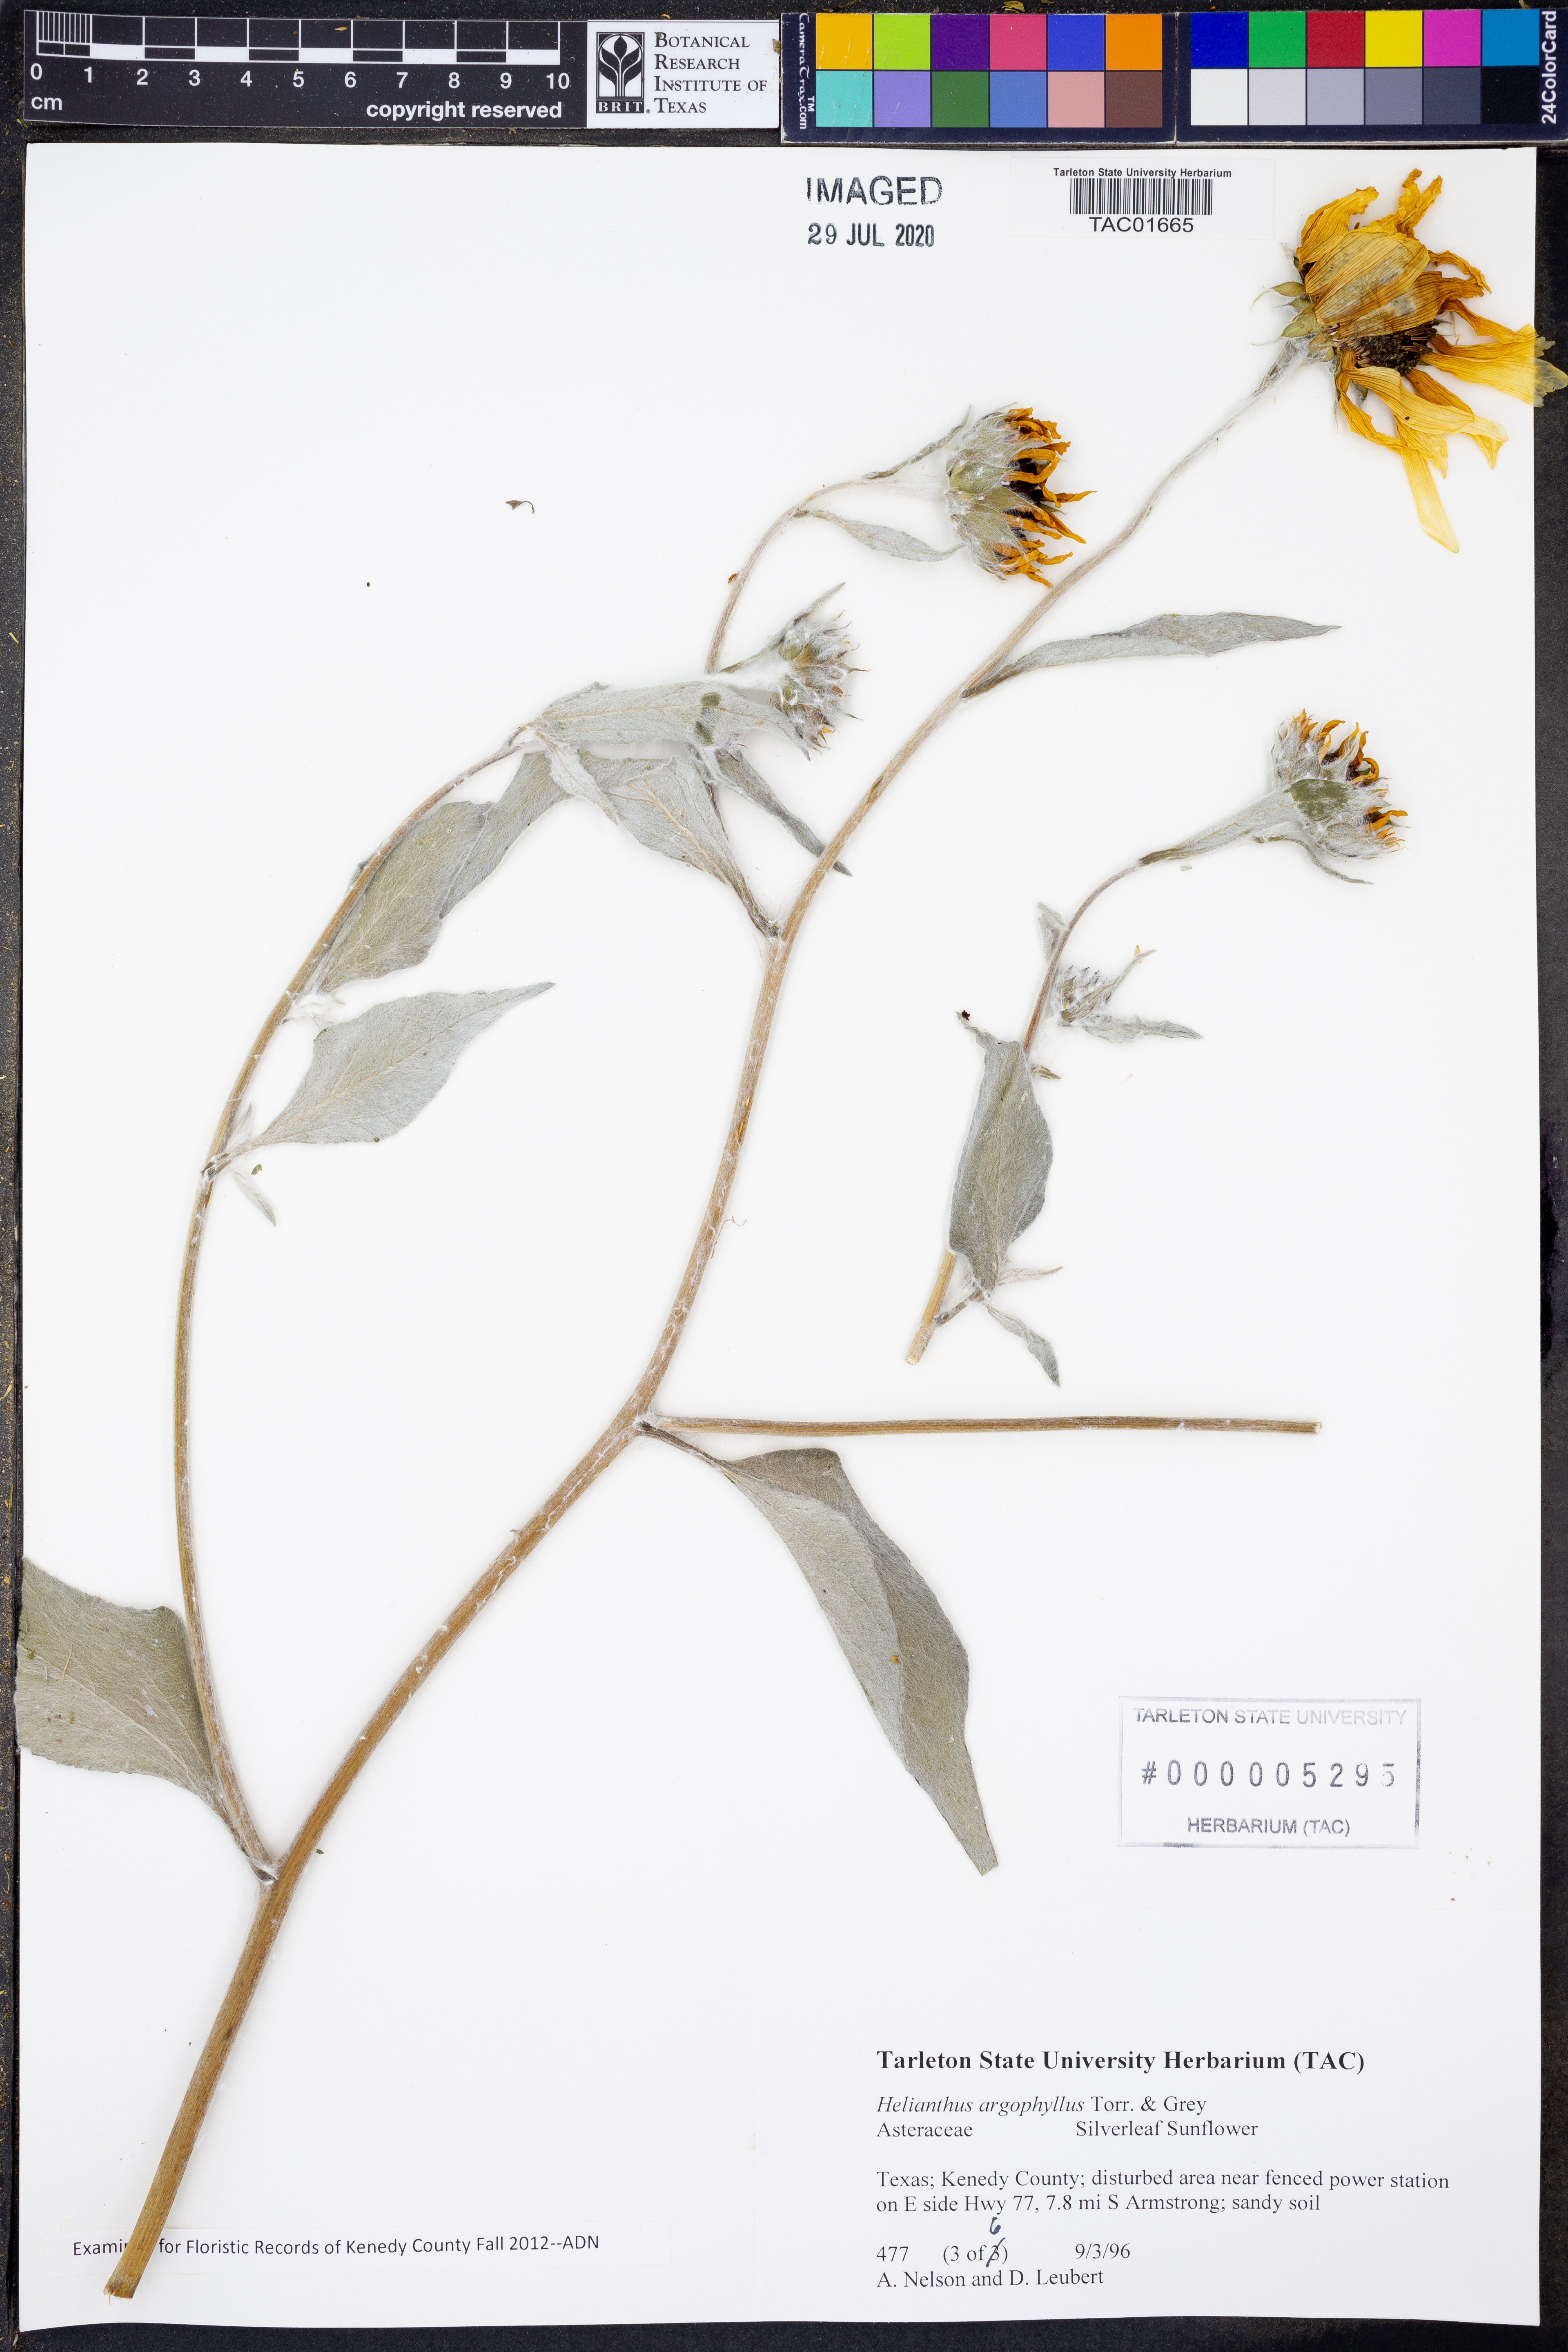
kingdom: Plantae
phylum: Tracheophyta
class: Magnoliopsida
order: Asterales
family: Asteraceae
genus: Helianthus
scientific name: Helianthus argophyllus
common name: Silverleaf sunflower
